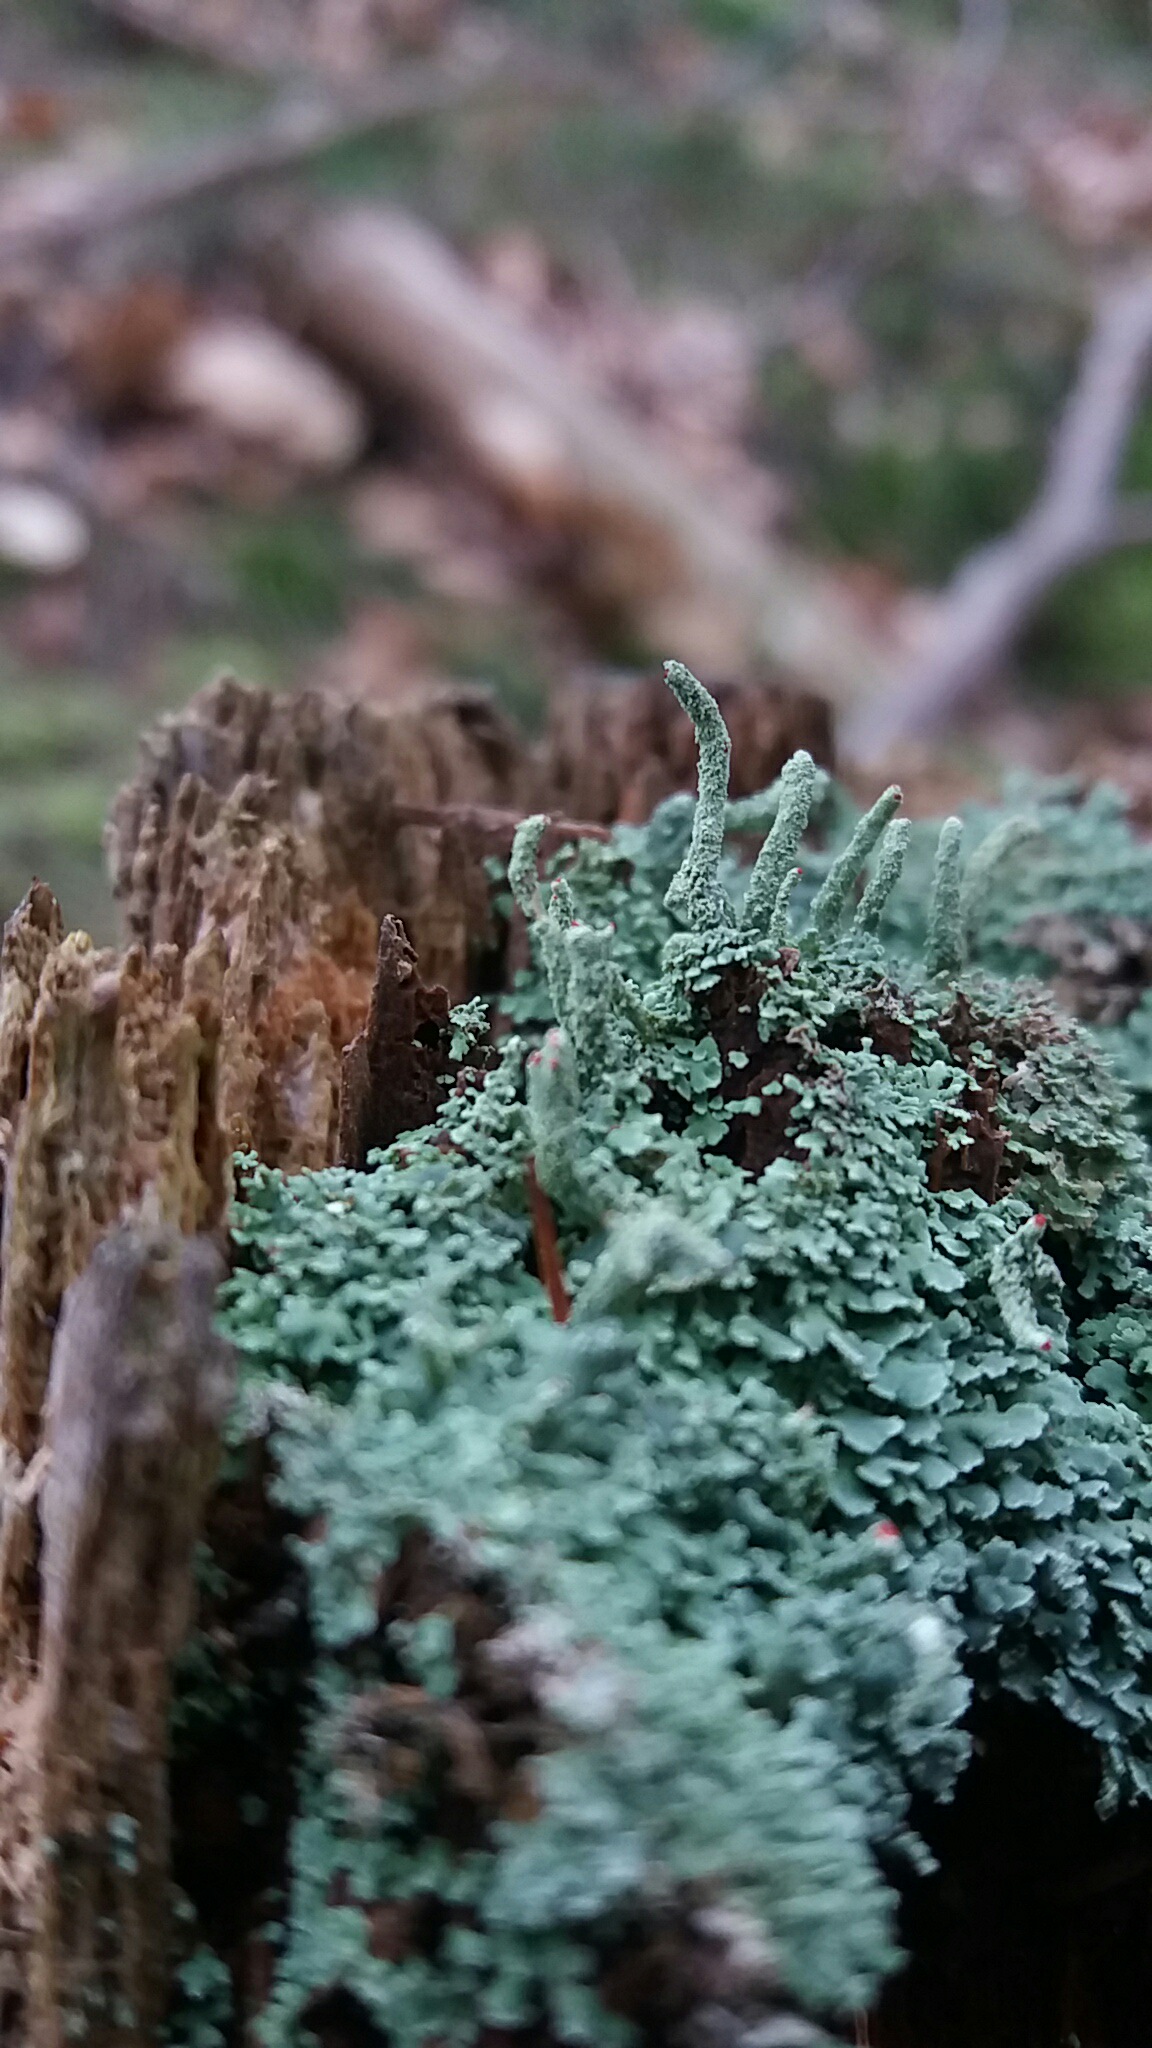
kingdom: Fungi
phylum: Ascomycota
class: Lecanoromycetes
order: Lecanorales
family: Cladoniaceae
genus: Cladonia
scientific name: Cladonia coniocraea
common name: træfods-bægerlav
